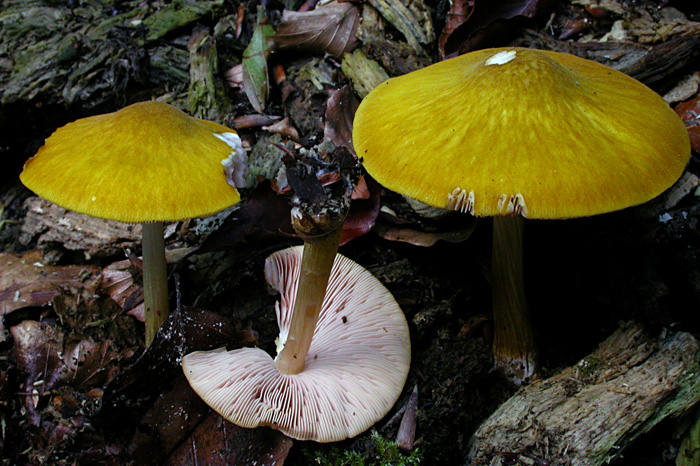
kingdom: Fungi
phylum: Basidiomycota
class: Agaricomycetes
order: Agaricales
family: Pluteaceae
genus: Pluteus
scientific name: Pluteus leoninus
